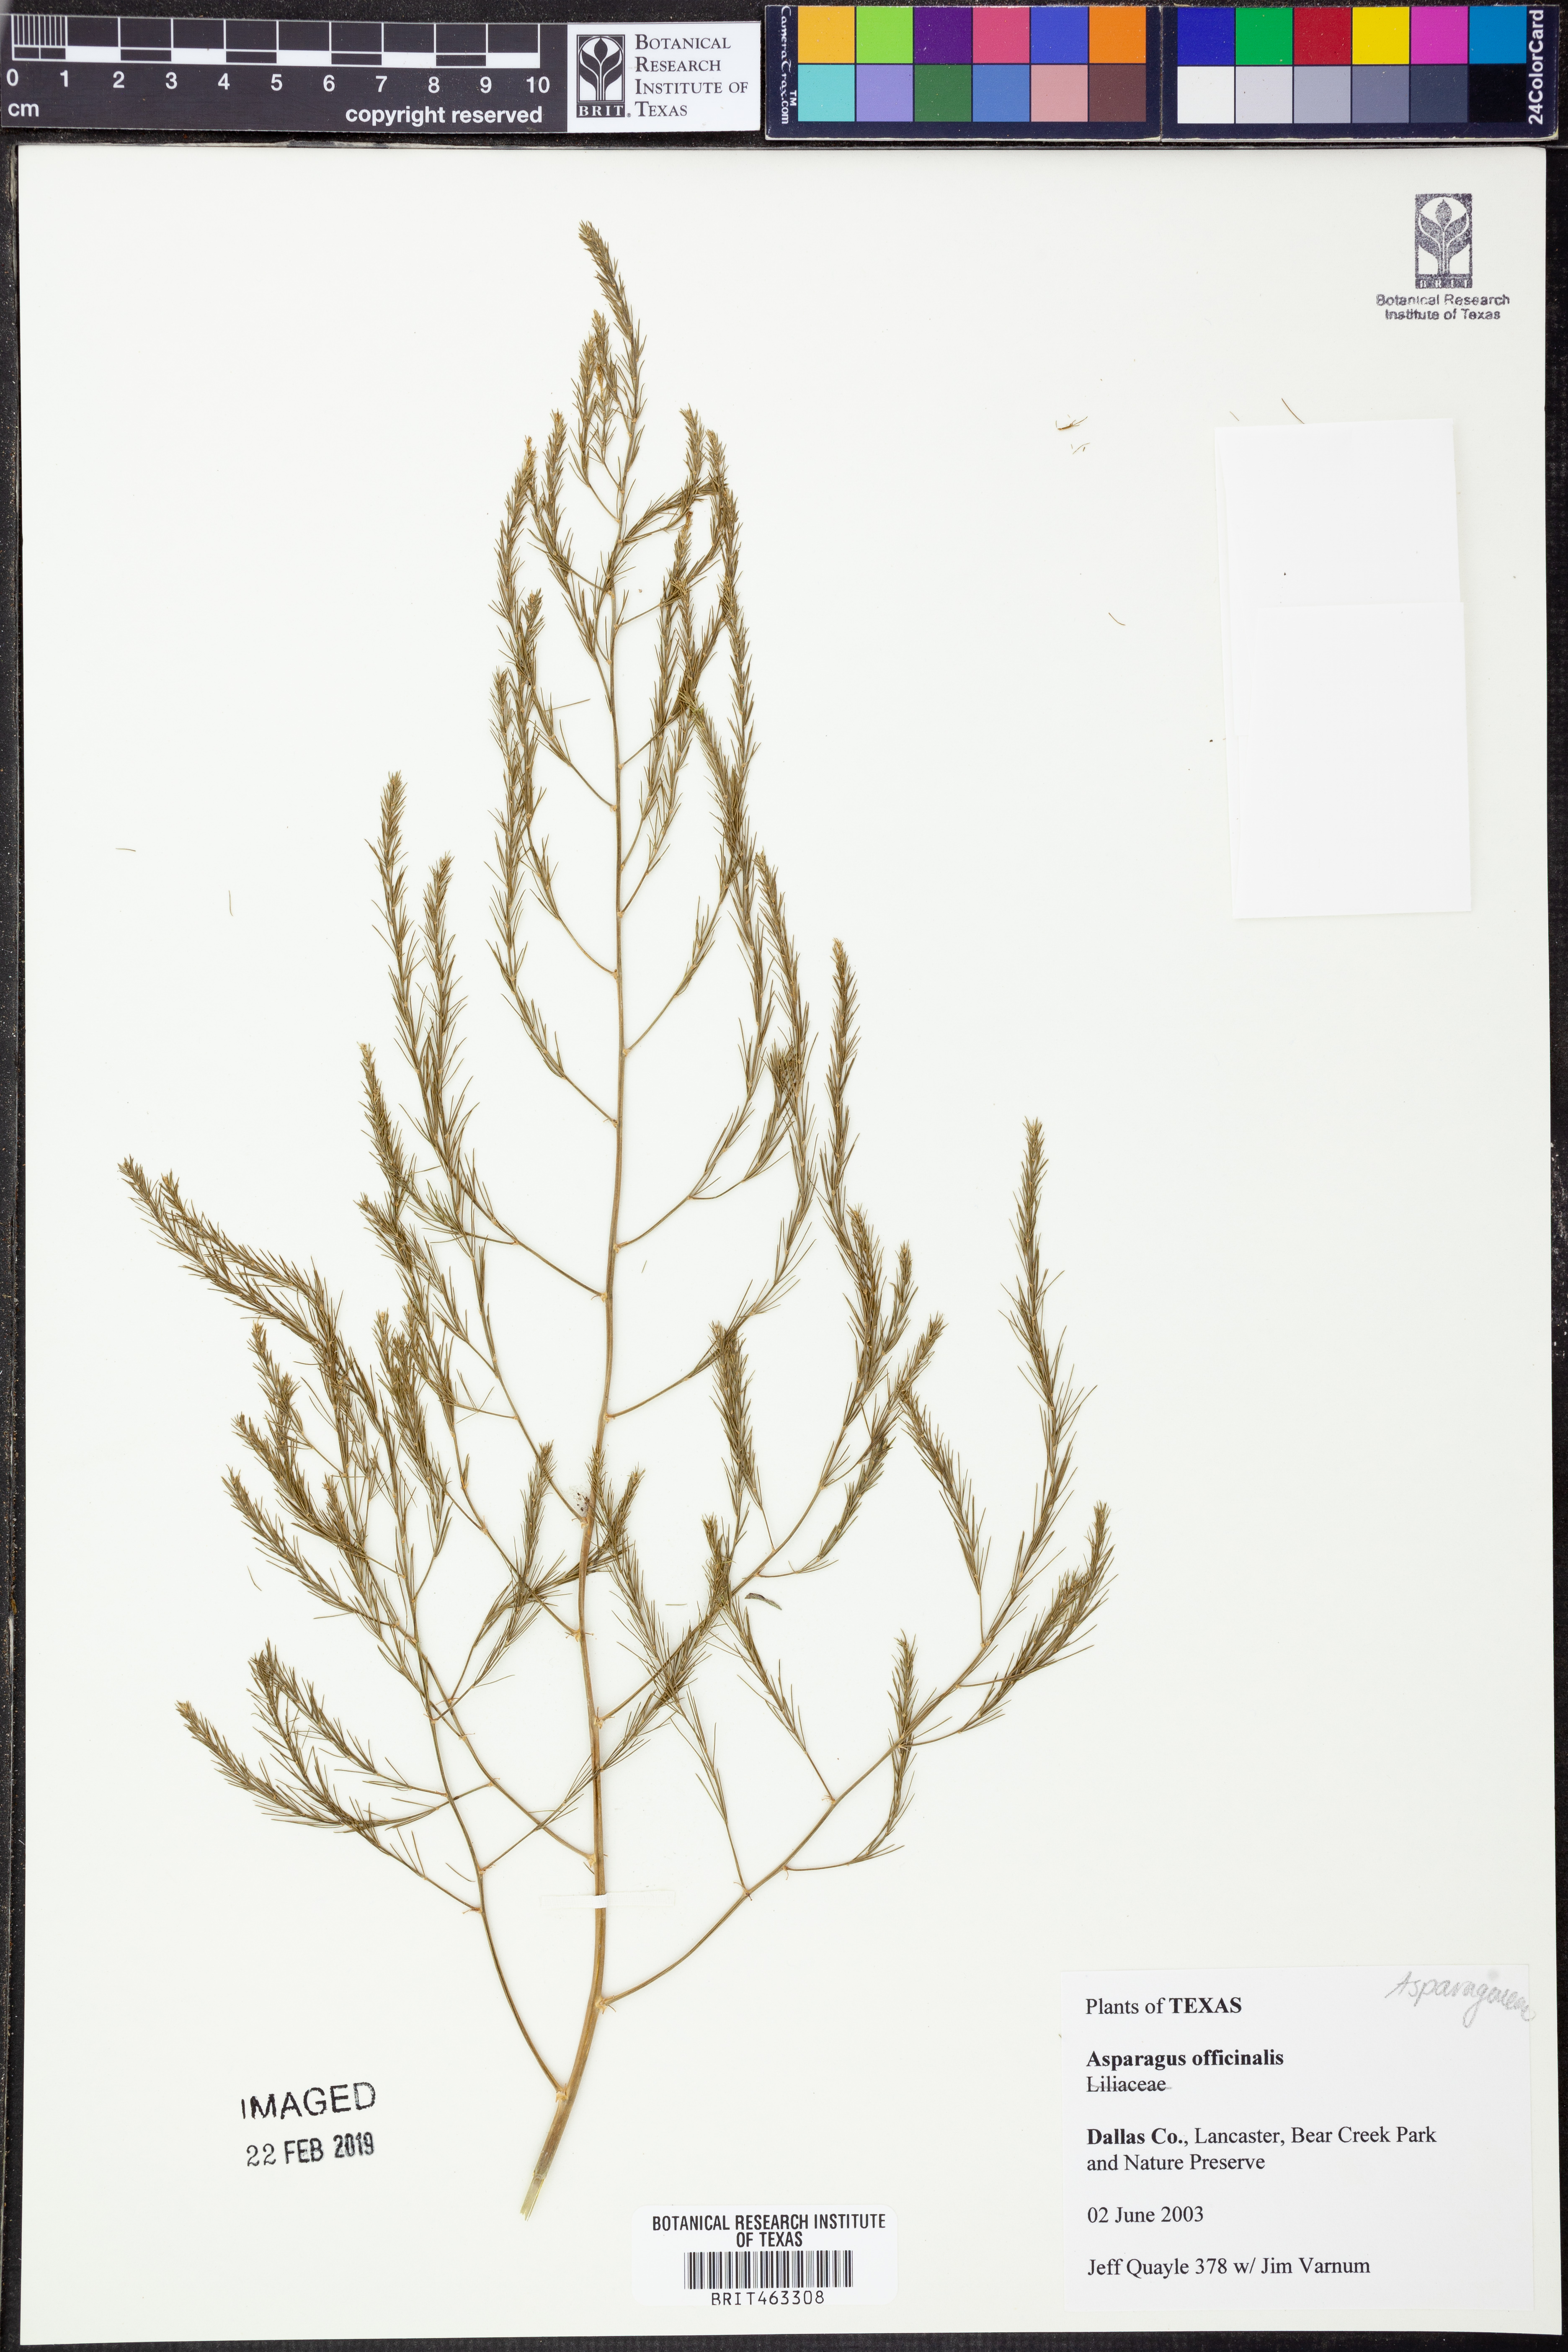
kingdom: Plantae
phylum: Tracheophyta
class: Liliopsida
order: Asparagales
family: Asparagaceae
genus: Asparagus
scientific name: Asparagus officinalis
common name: Garden asparagus
